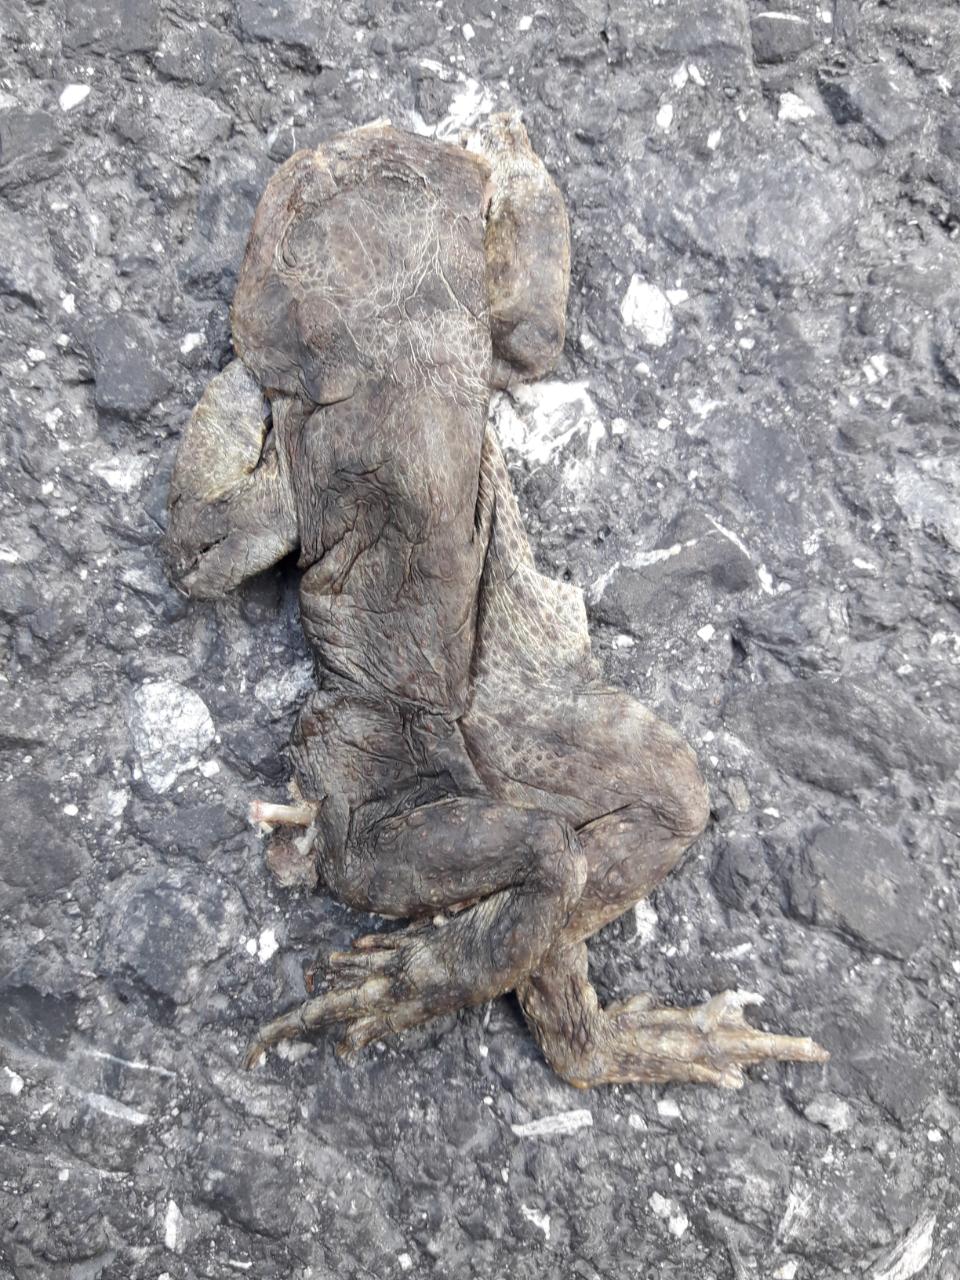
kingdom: Animalia
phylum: Chordata
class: Amphibia
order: Anura
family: Bufonidae
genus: Bufo
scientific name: Bufo bufo
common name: Common toad
